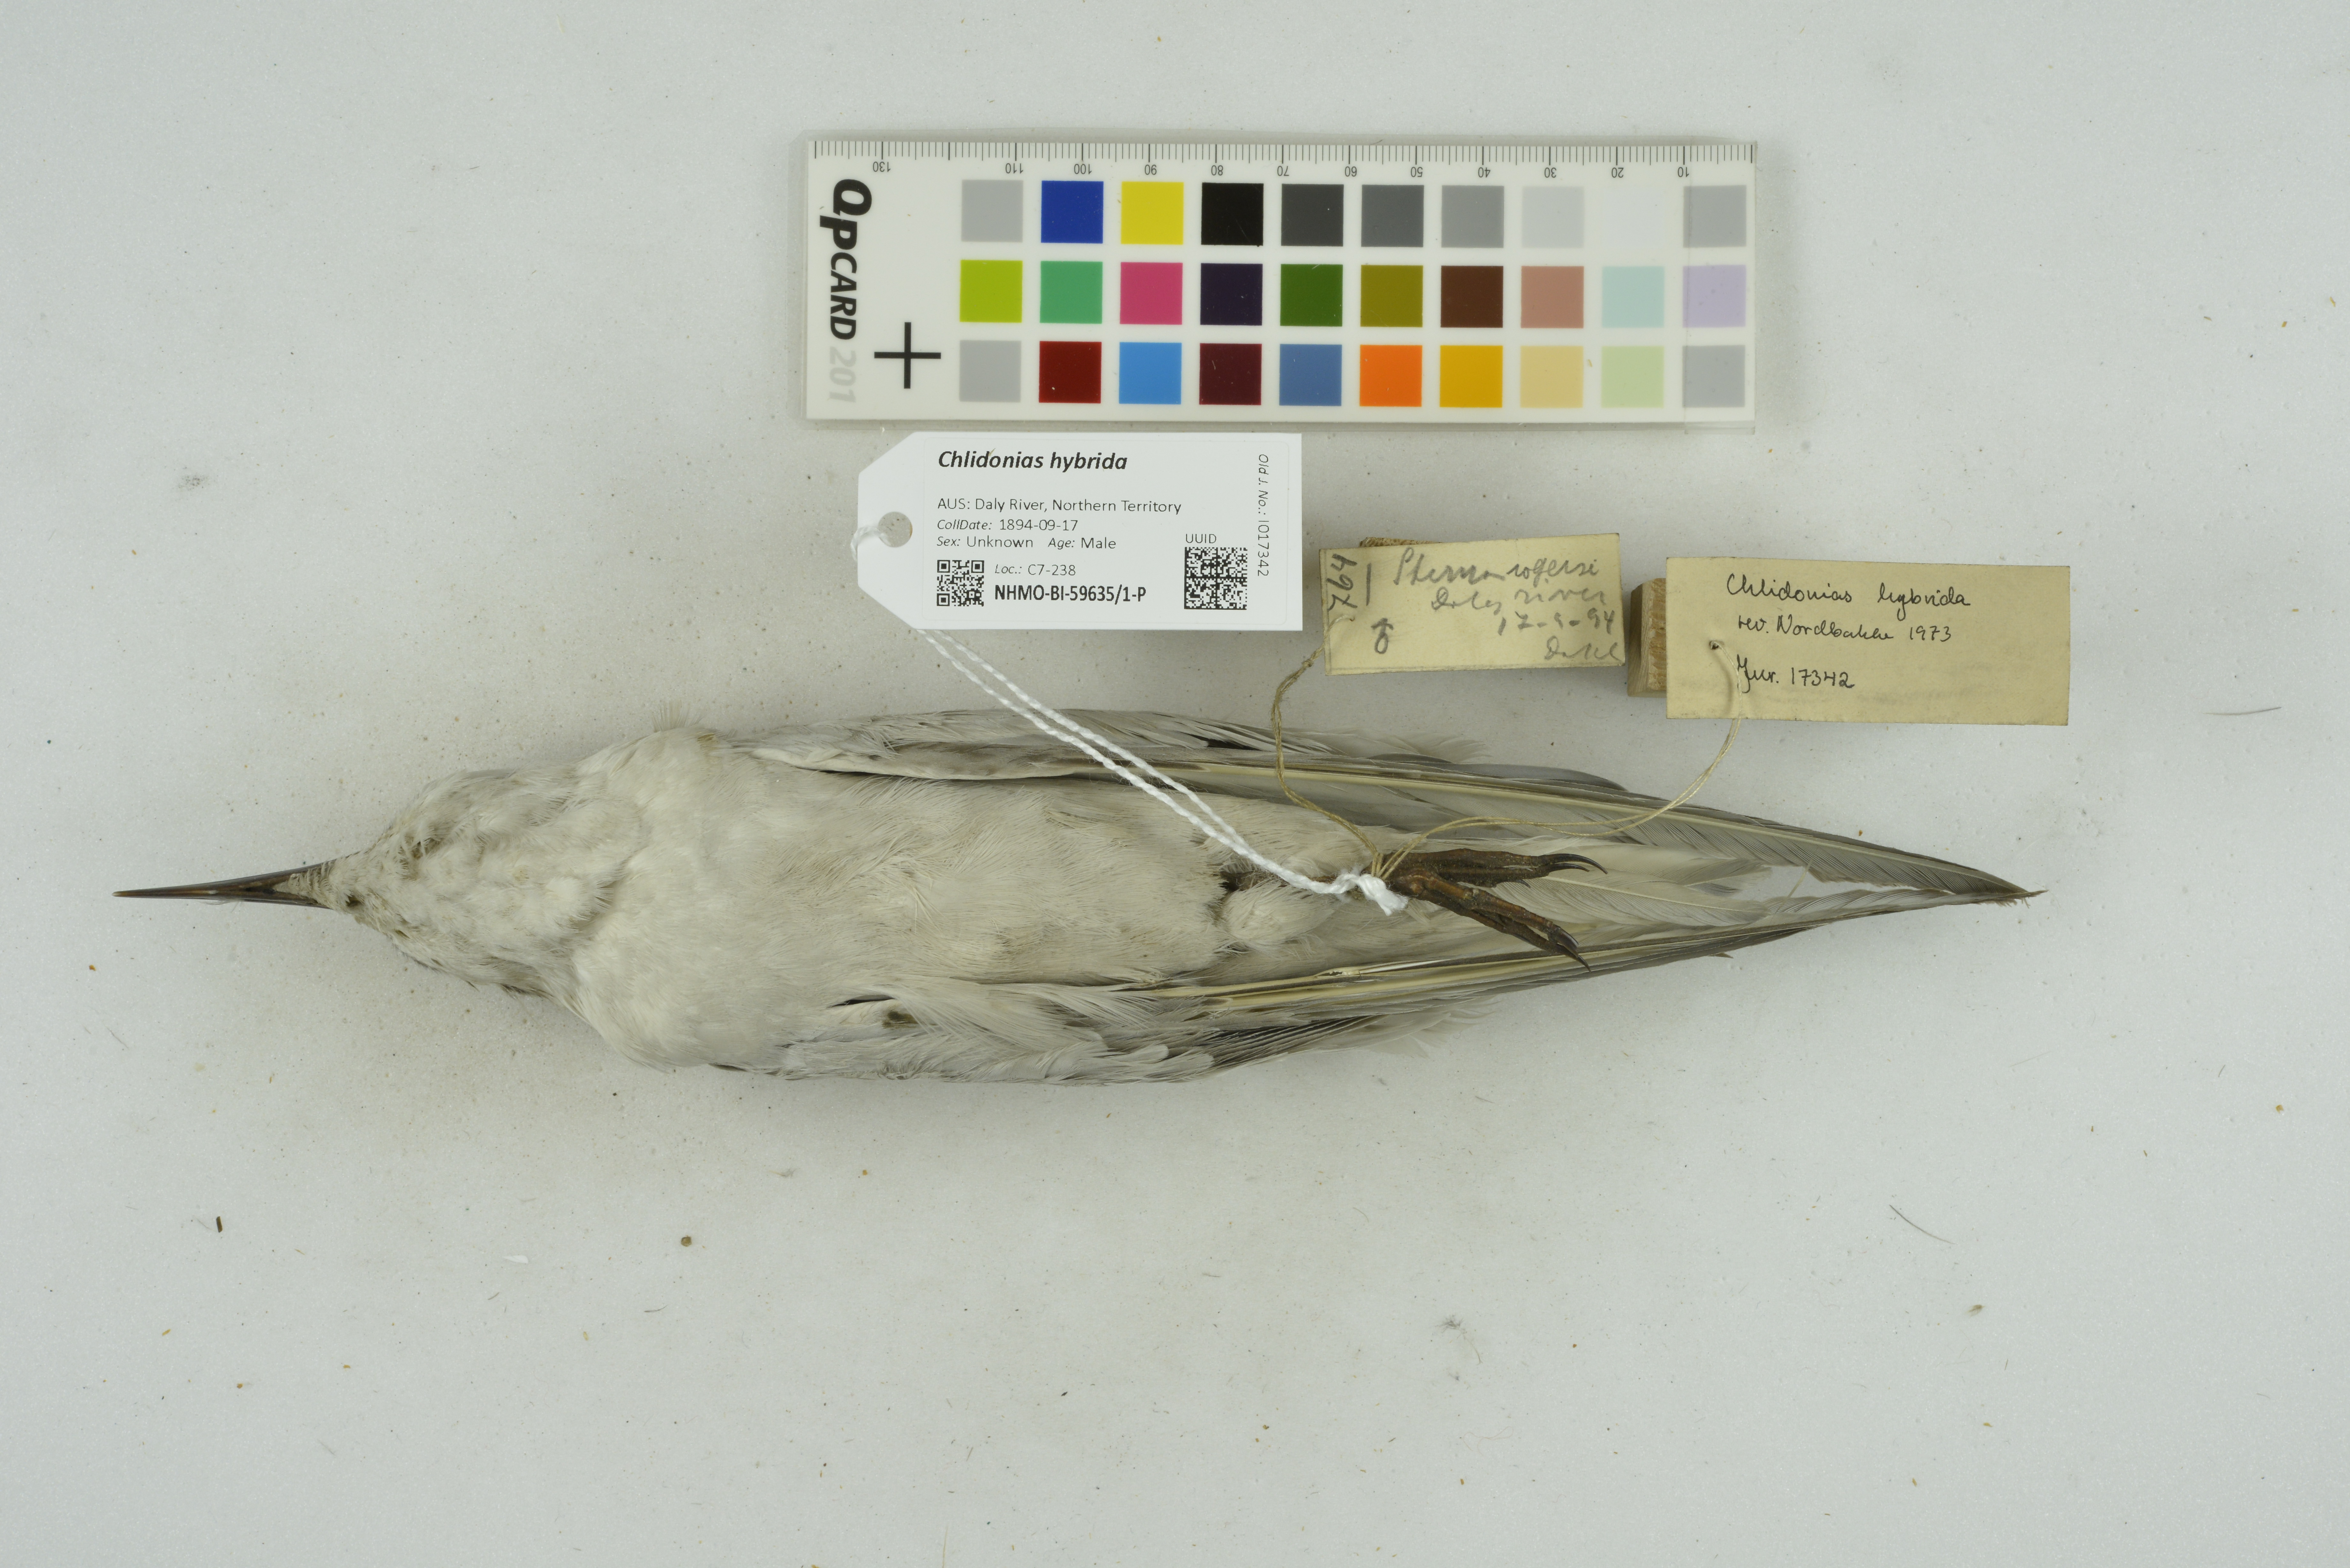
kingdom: Animalia
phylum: Chordata
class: Aves
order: Charadriiformes
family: Laridae
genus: Chlidonias
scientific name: Chlidonias hybrida
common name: Whiskered tern
